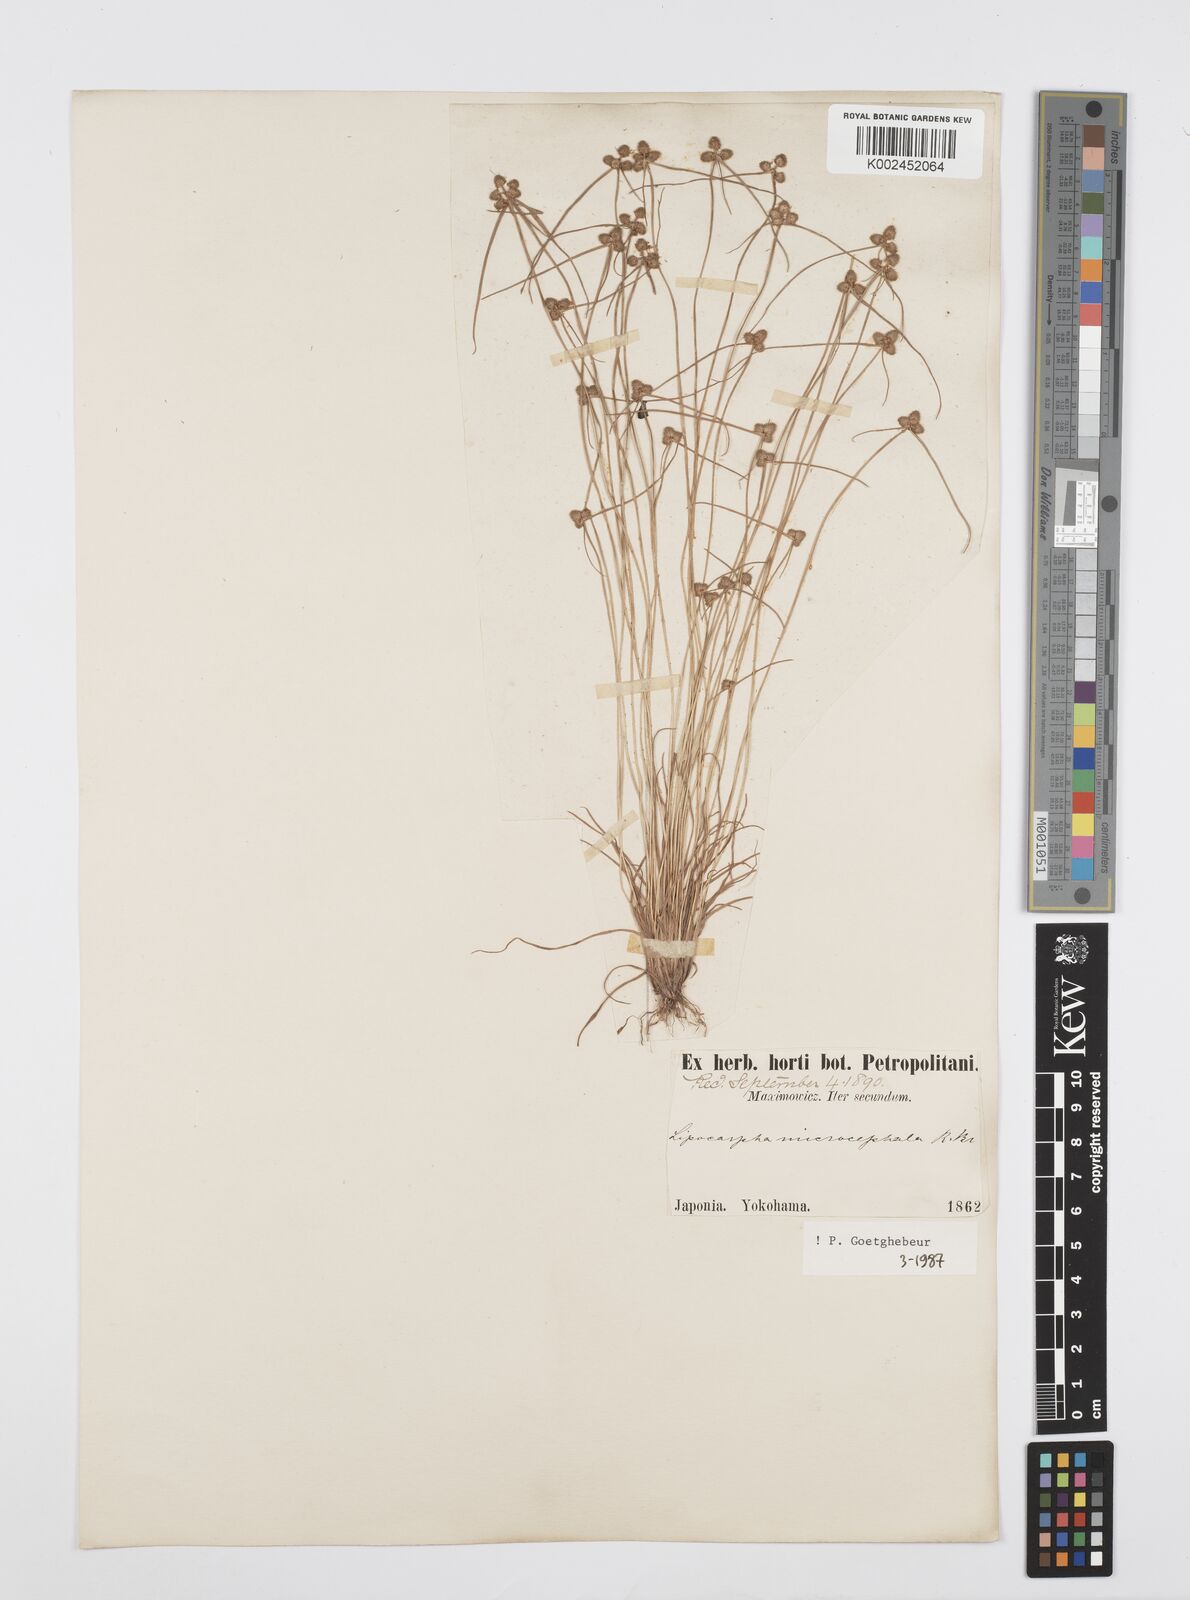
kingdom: Plantae
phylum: Tracheophyta
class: Liliopsida
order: Poales
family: Cyperaceae
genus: Cyperus
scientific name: Cyperus microcephalus
